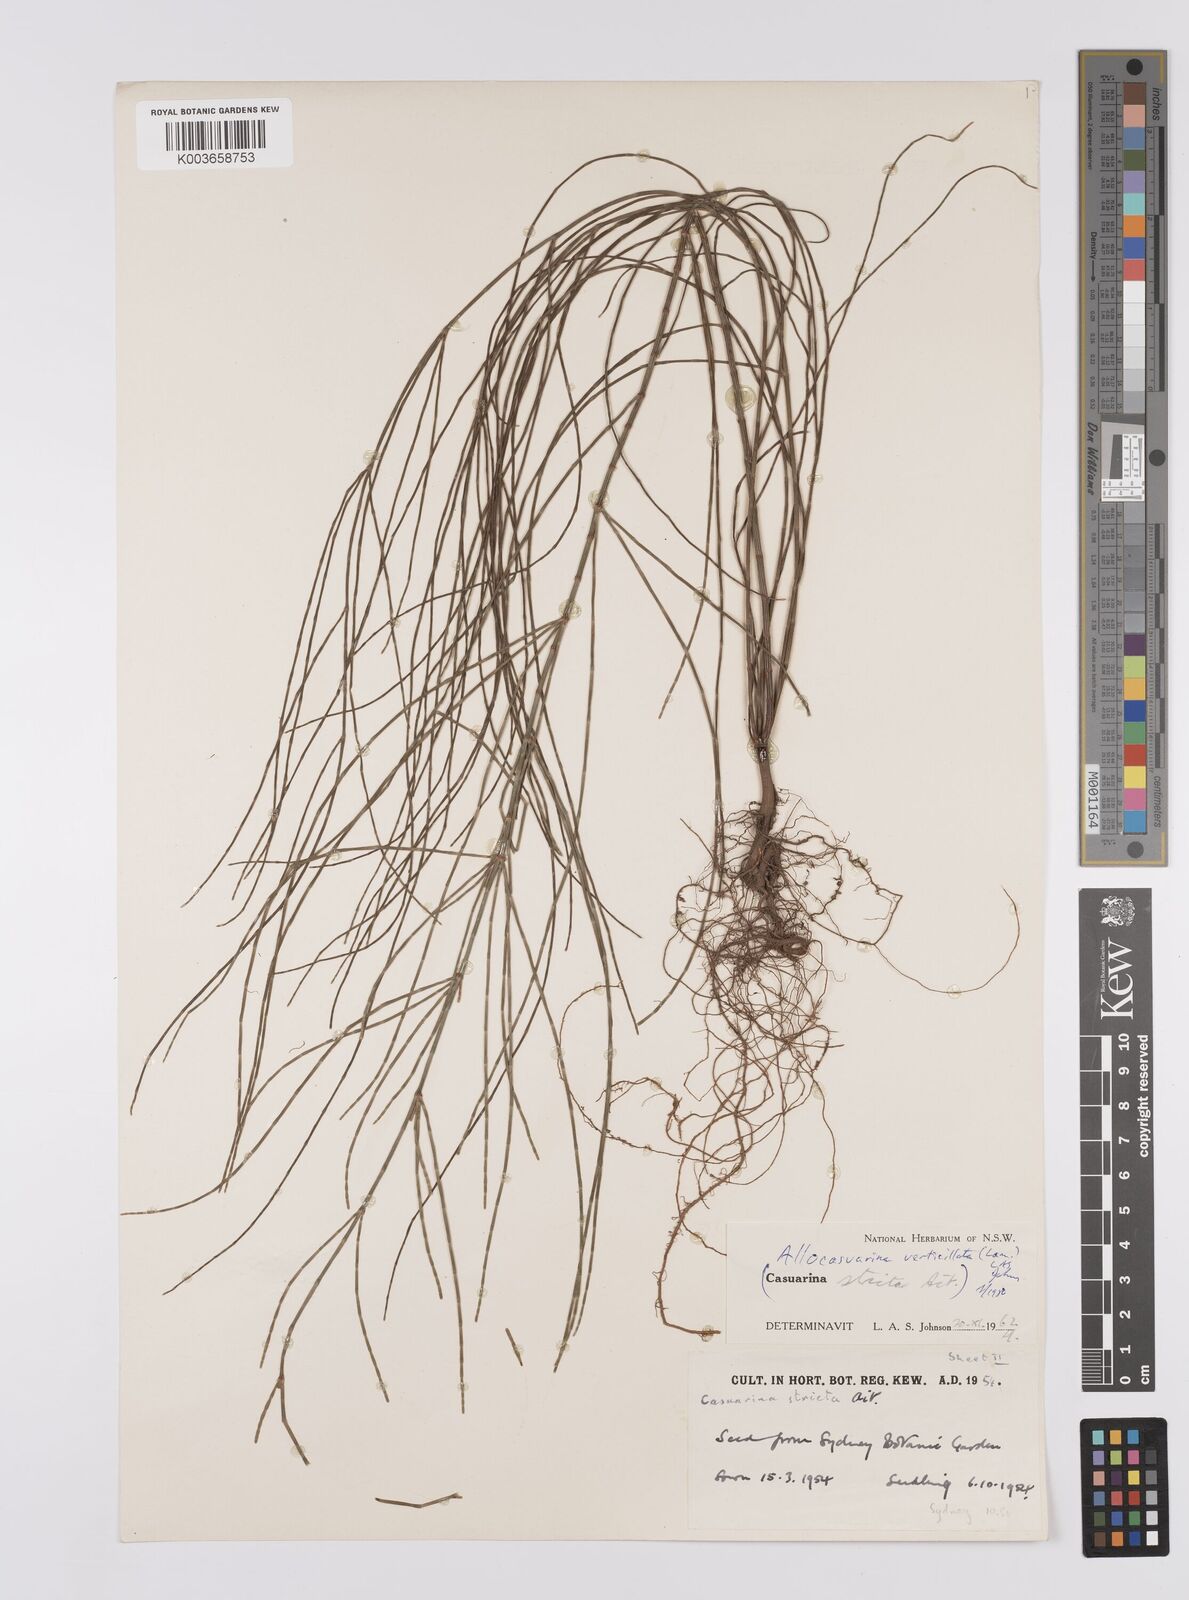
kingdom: Plantae
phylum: Tracheophyta
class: Magnoliopsida
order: Fagales
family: Casuarinaceae
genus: Allocasuarina
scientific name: Allocasuarina verticillata
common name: Drooping she-oak
